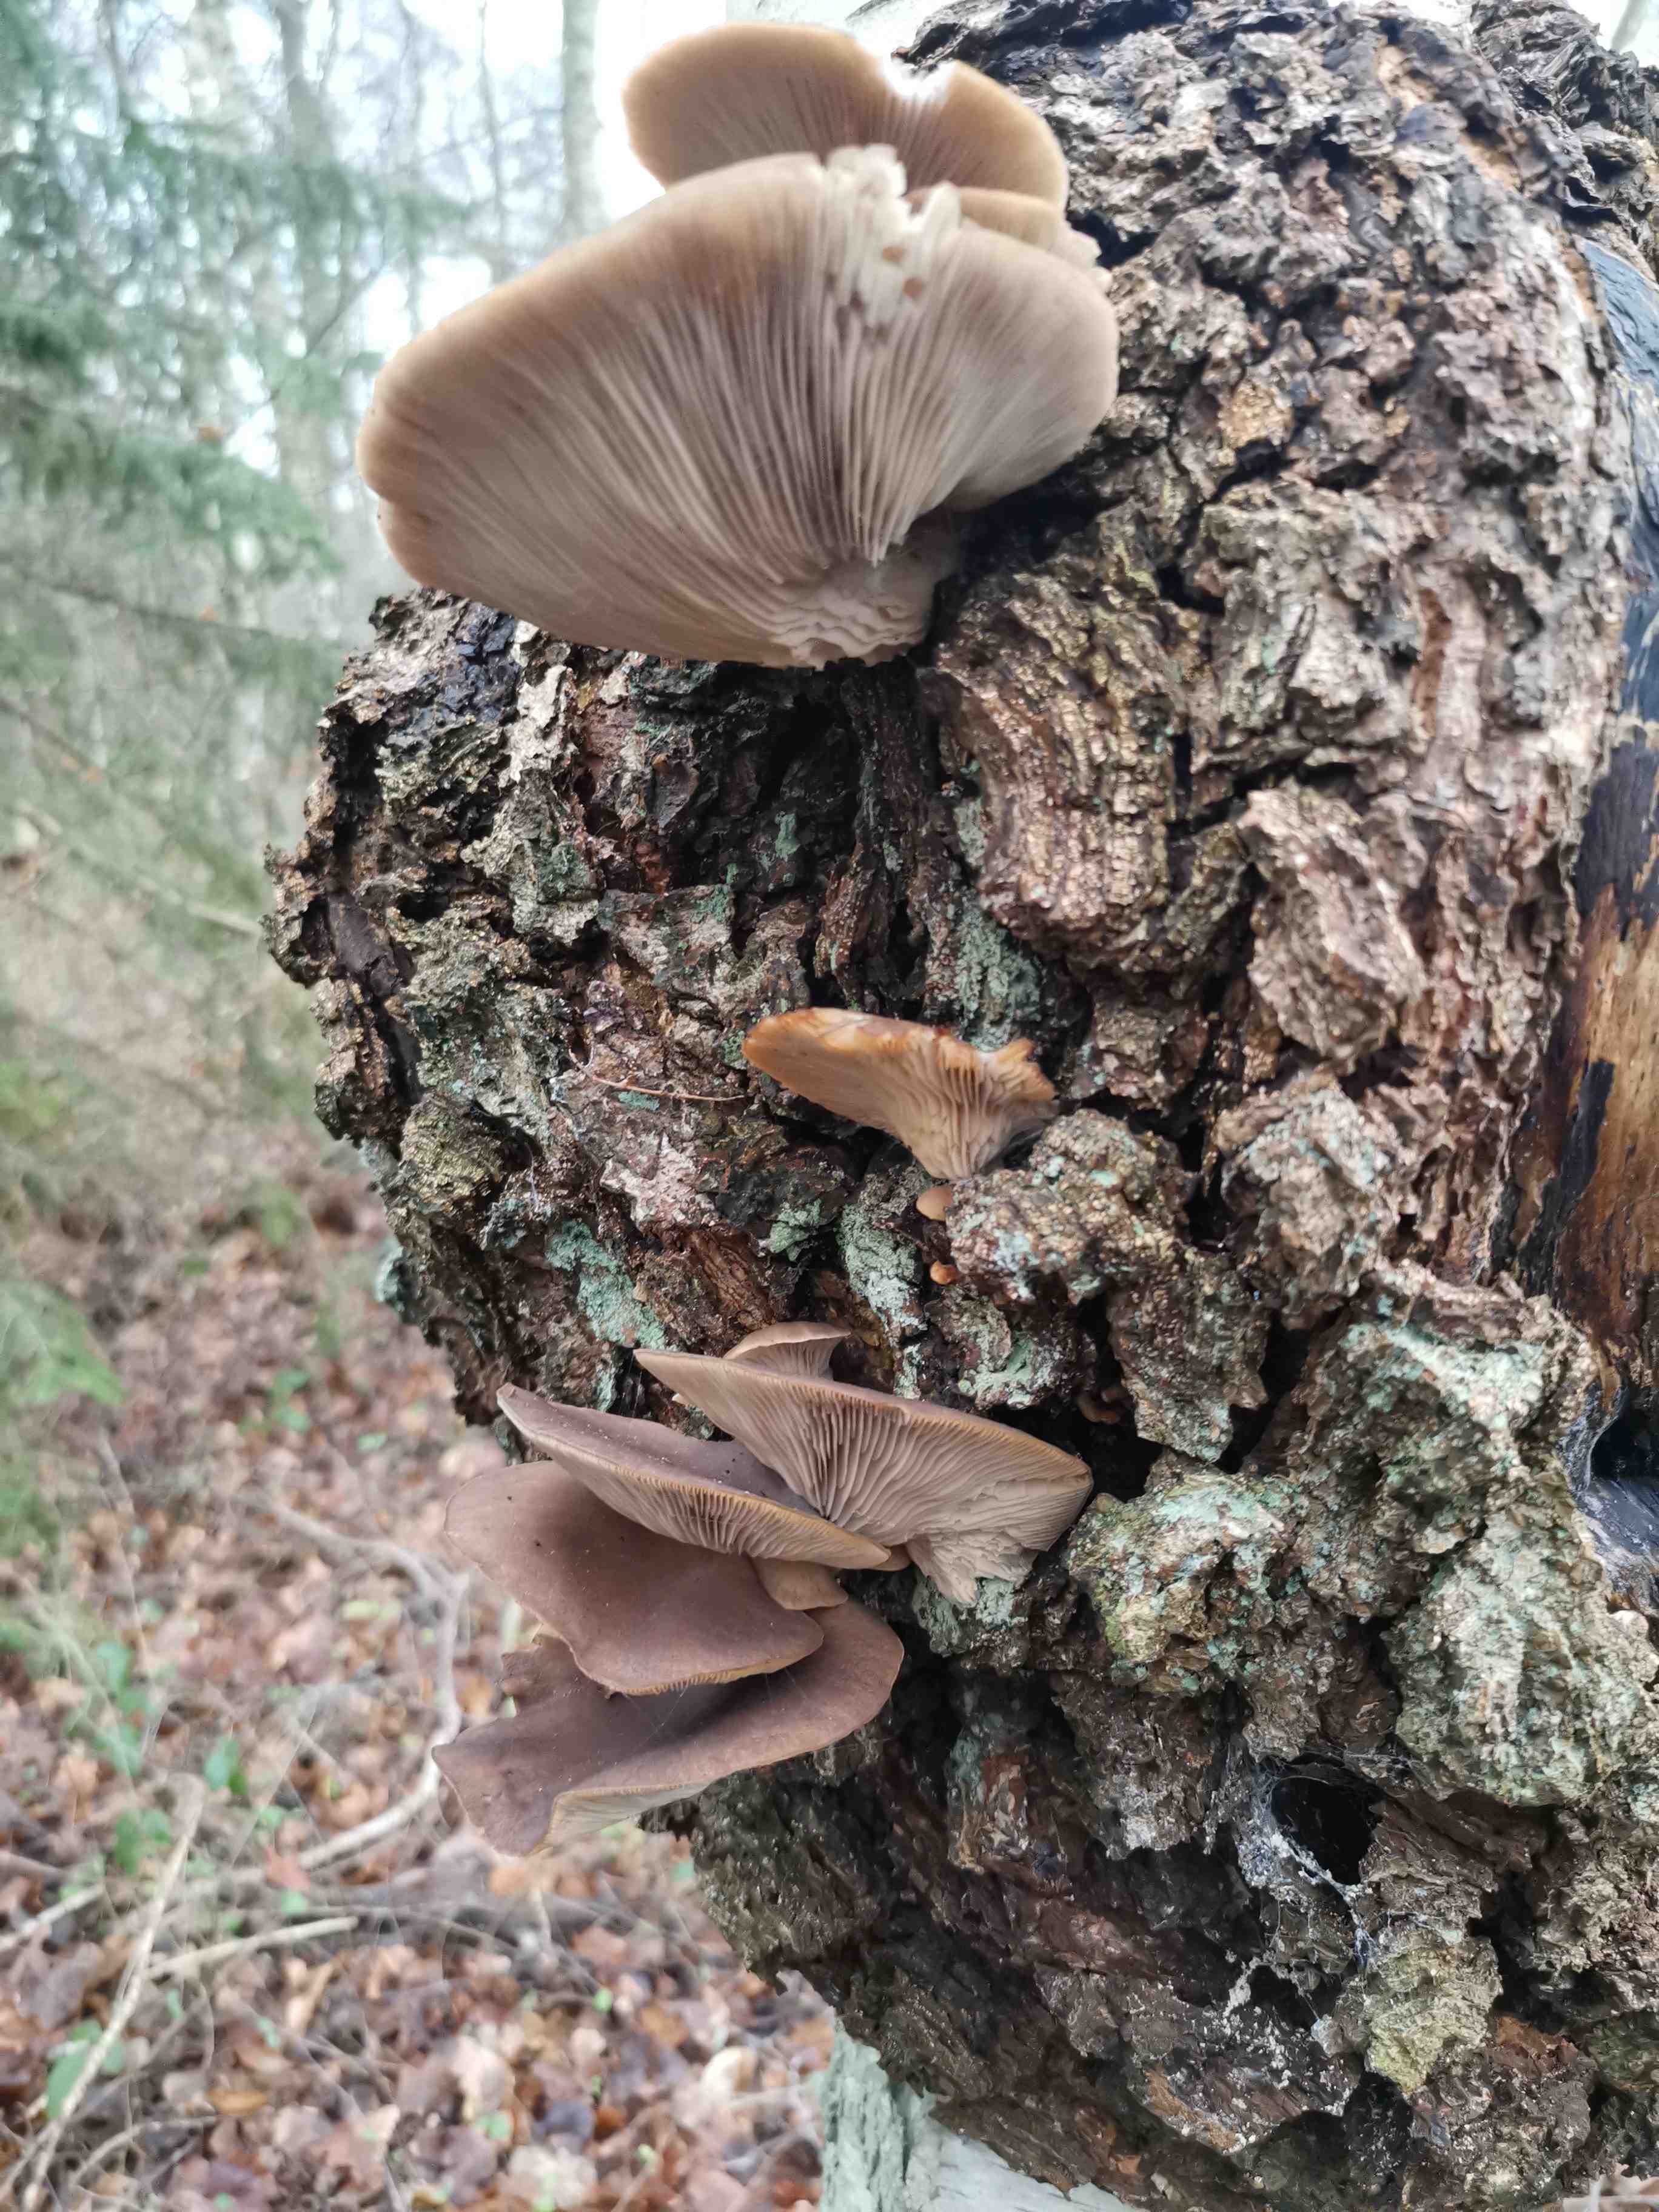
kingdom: Fungi
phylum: Basidiomycota
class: Agaricomycetes
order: Agaricales
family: Pleurotaceae
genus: Pleurotus
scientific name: Pleurotus ostreatus
